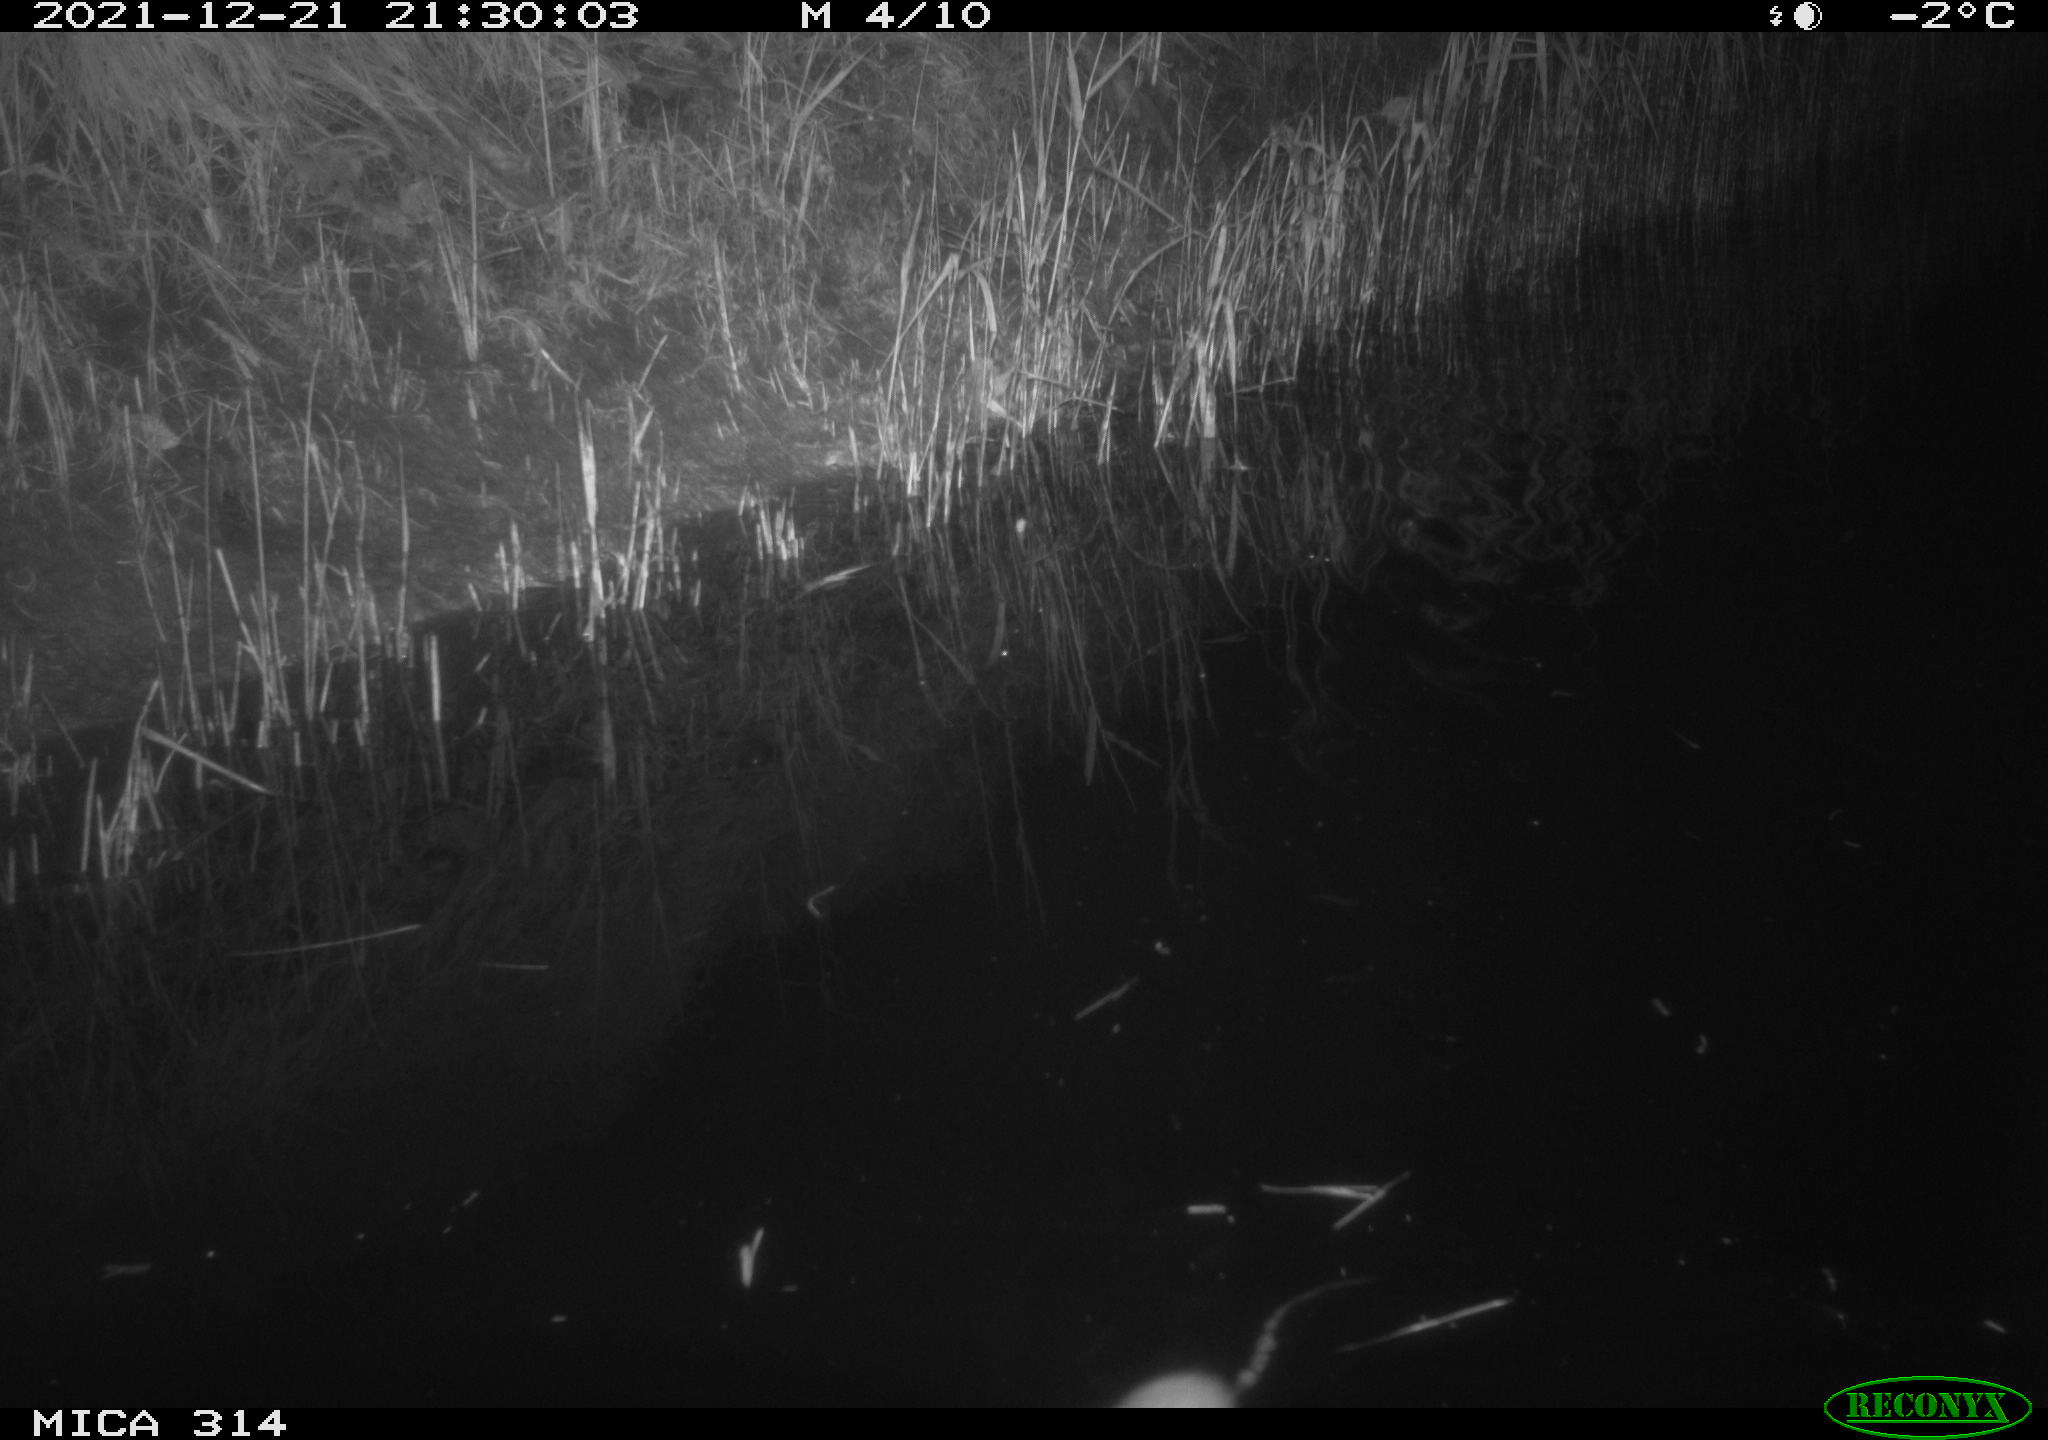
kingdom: Animalia
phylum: Chordata
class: Mammalia
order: Rodentia
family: Muridae
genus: Rattus
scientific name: Rattus norvegicus
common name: Brown rat
